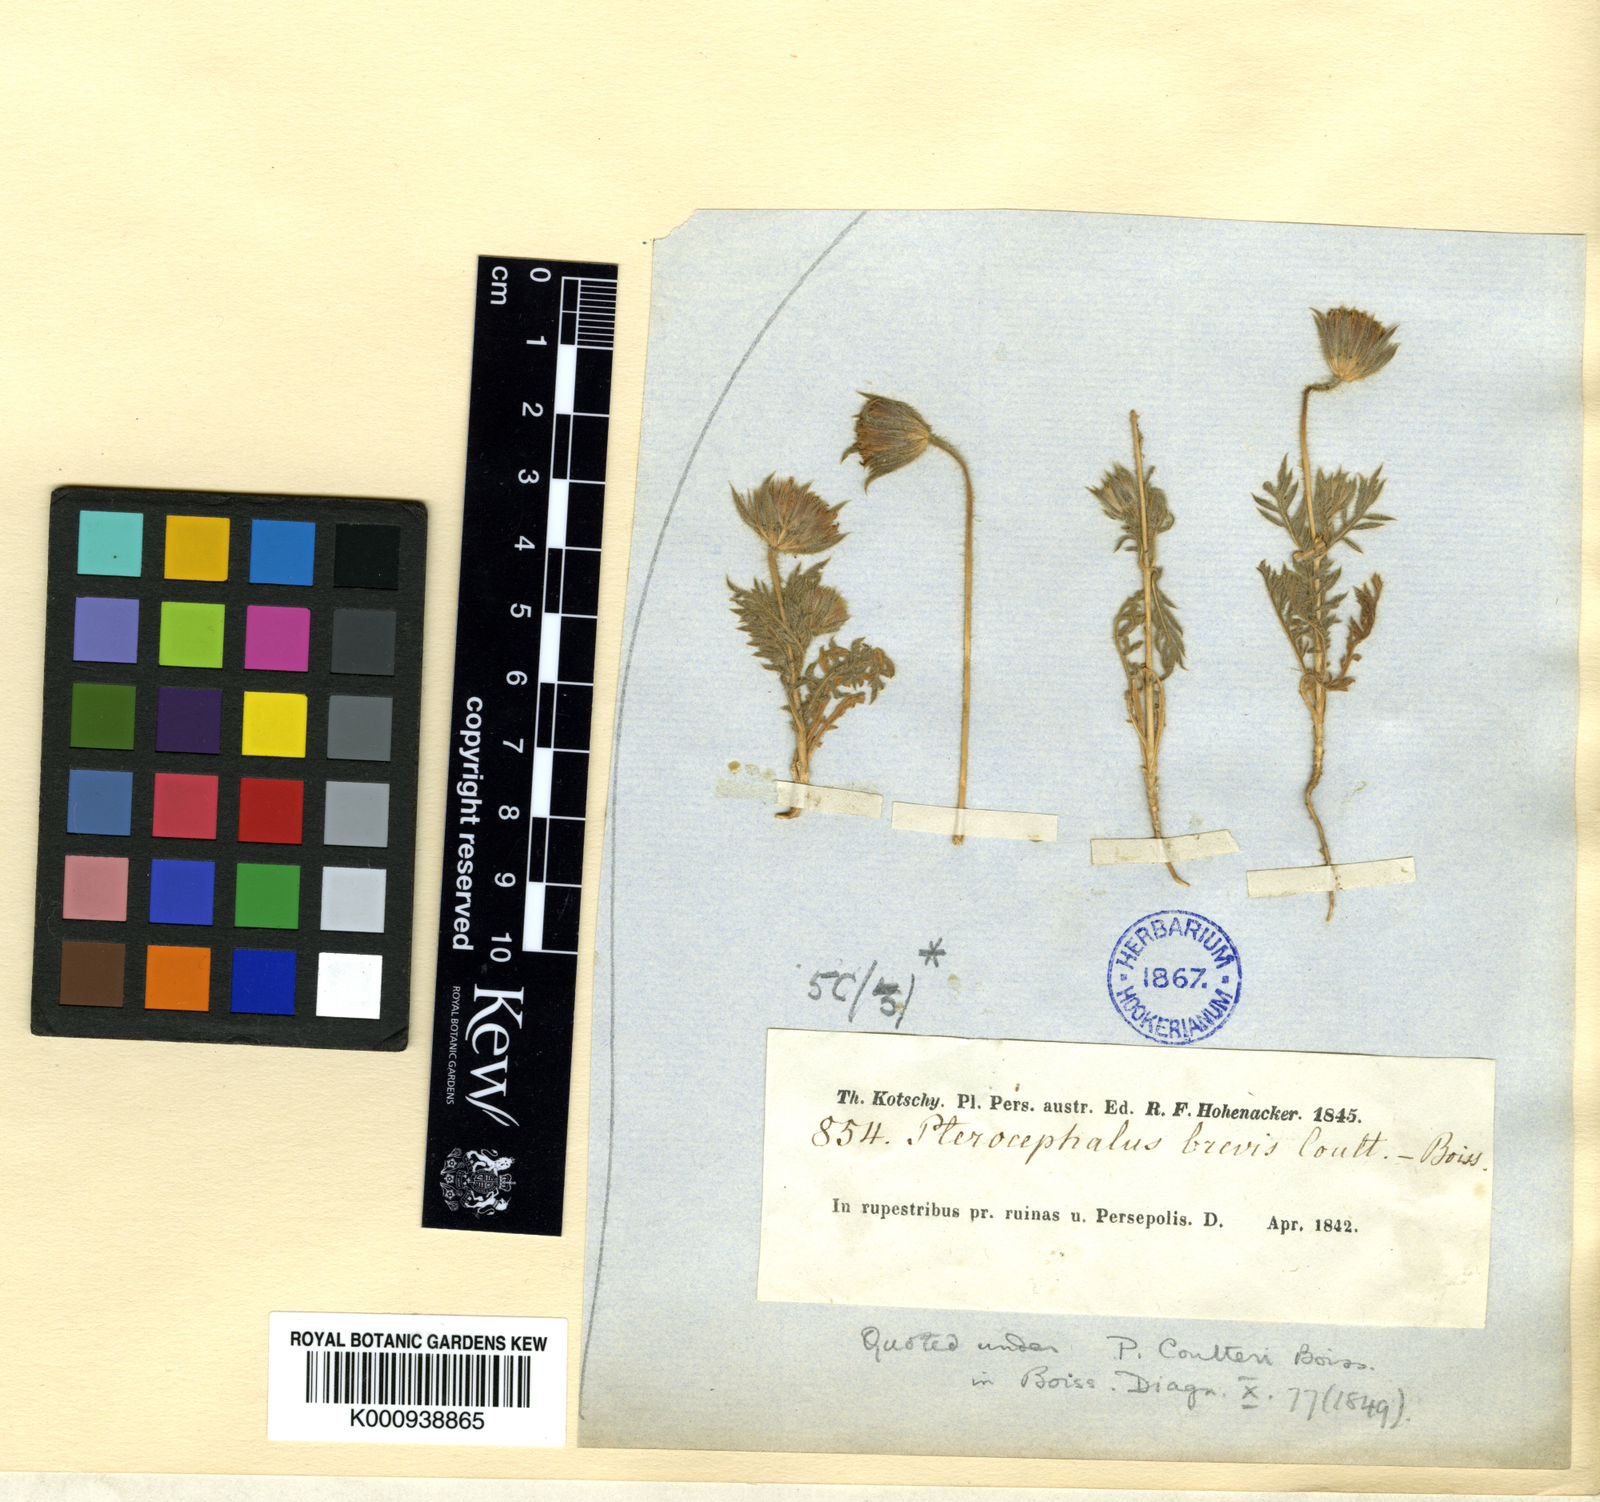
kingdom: Plantae
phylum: Tracheophyta
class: Magnoliopsida
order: Dipsacales
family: Caprifoliaceae
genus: Pterocephalus
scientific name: Pterocephalus brevis
